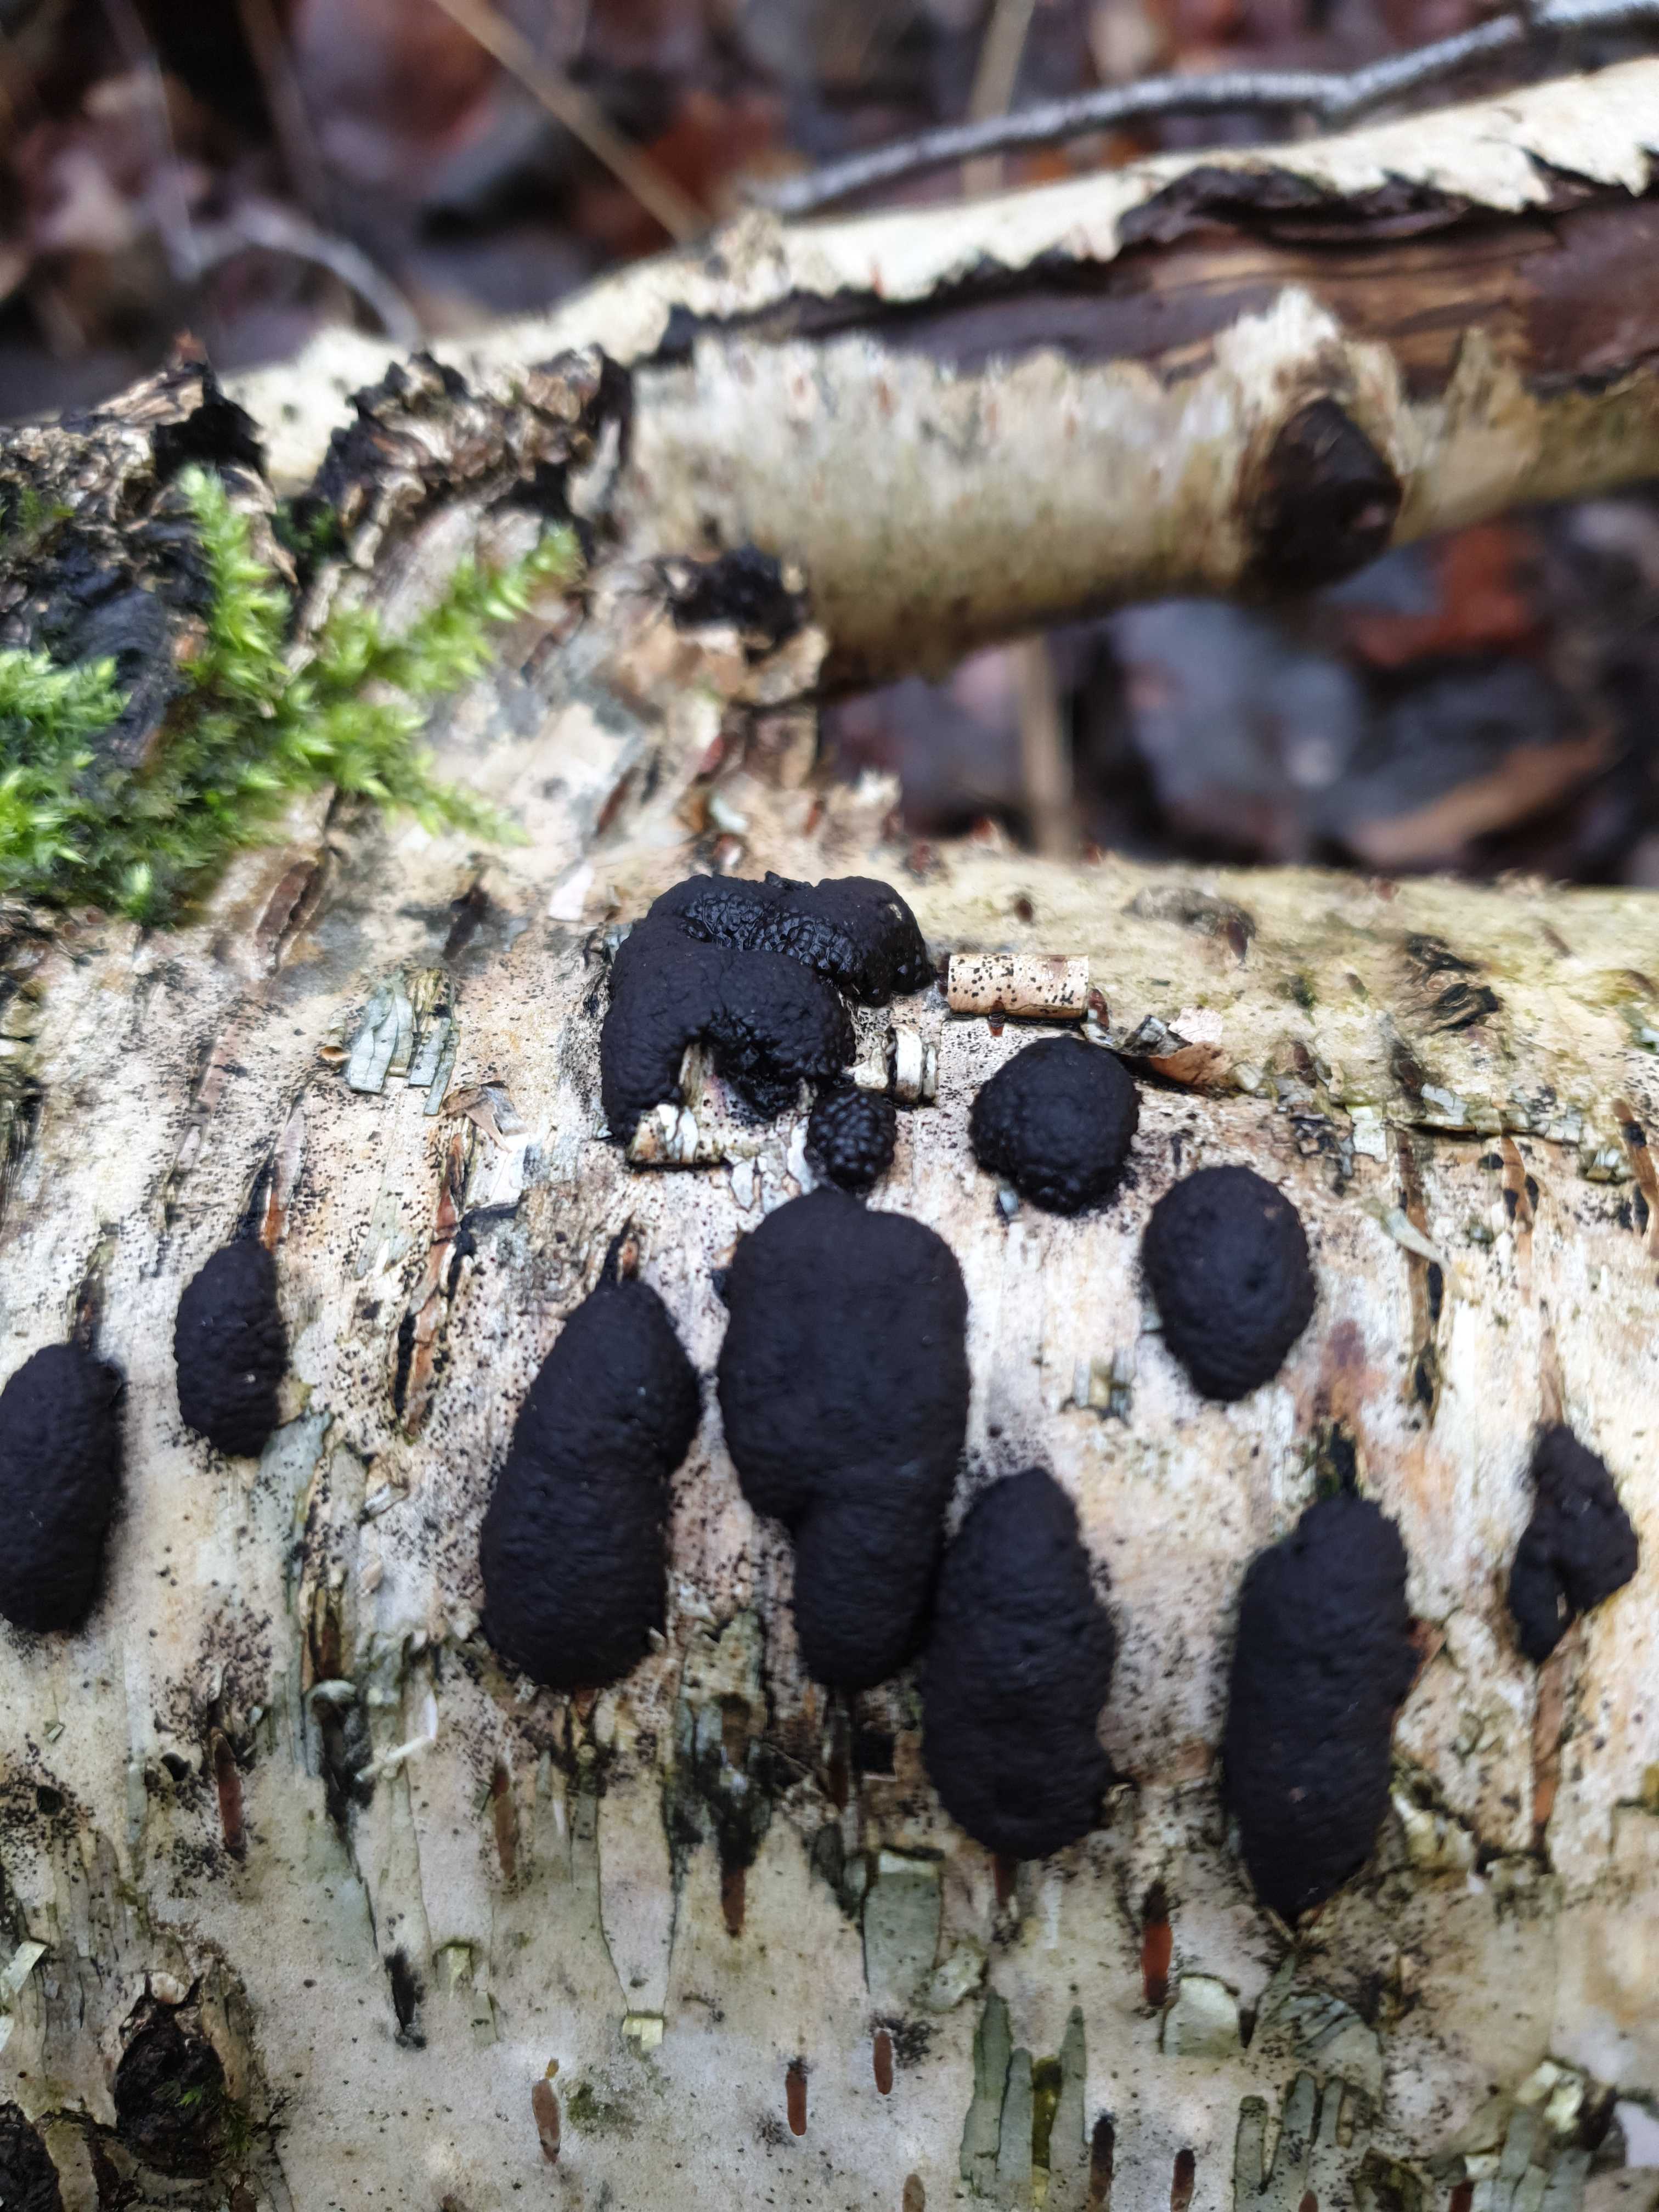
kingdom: Fungi
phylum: Ascomycota
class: Sordariomycetes
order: Xylariales
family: Hypoxylaceae
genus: Jackrogersella
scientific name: Jackrogersella multiformis
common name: foranderlig kulbær
